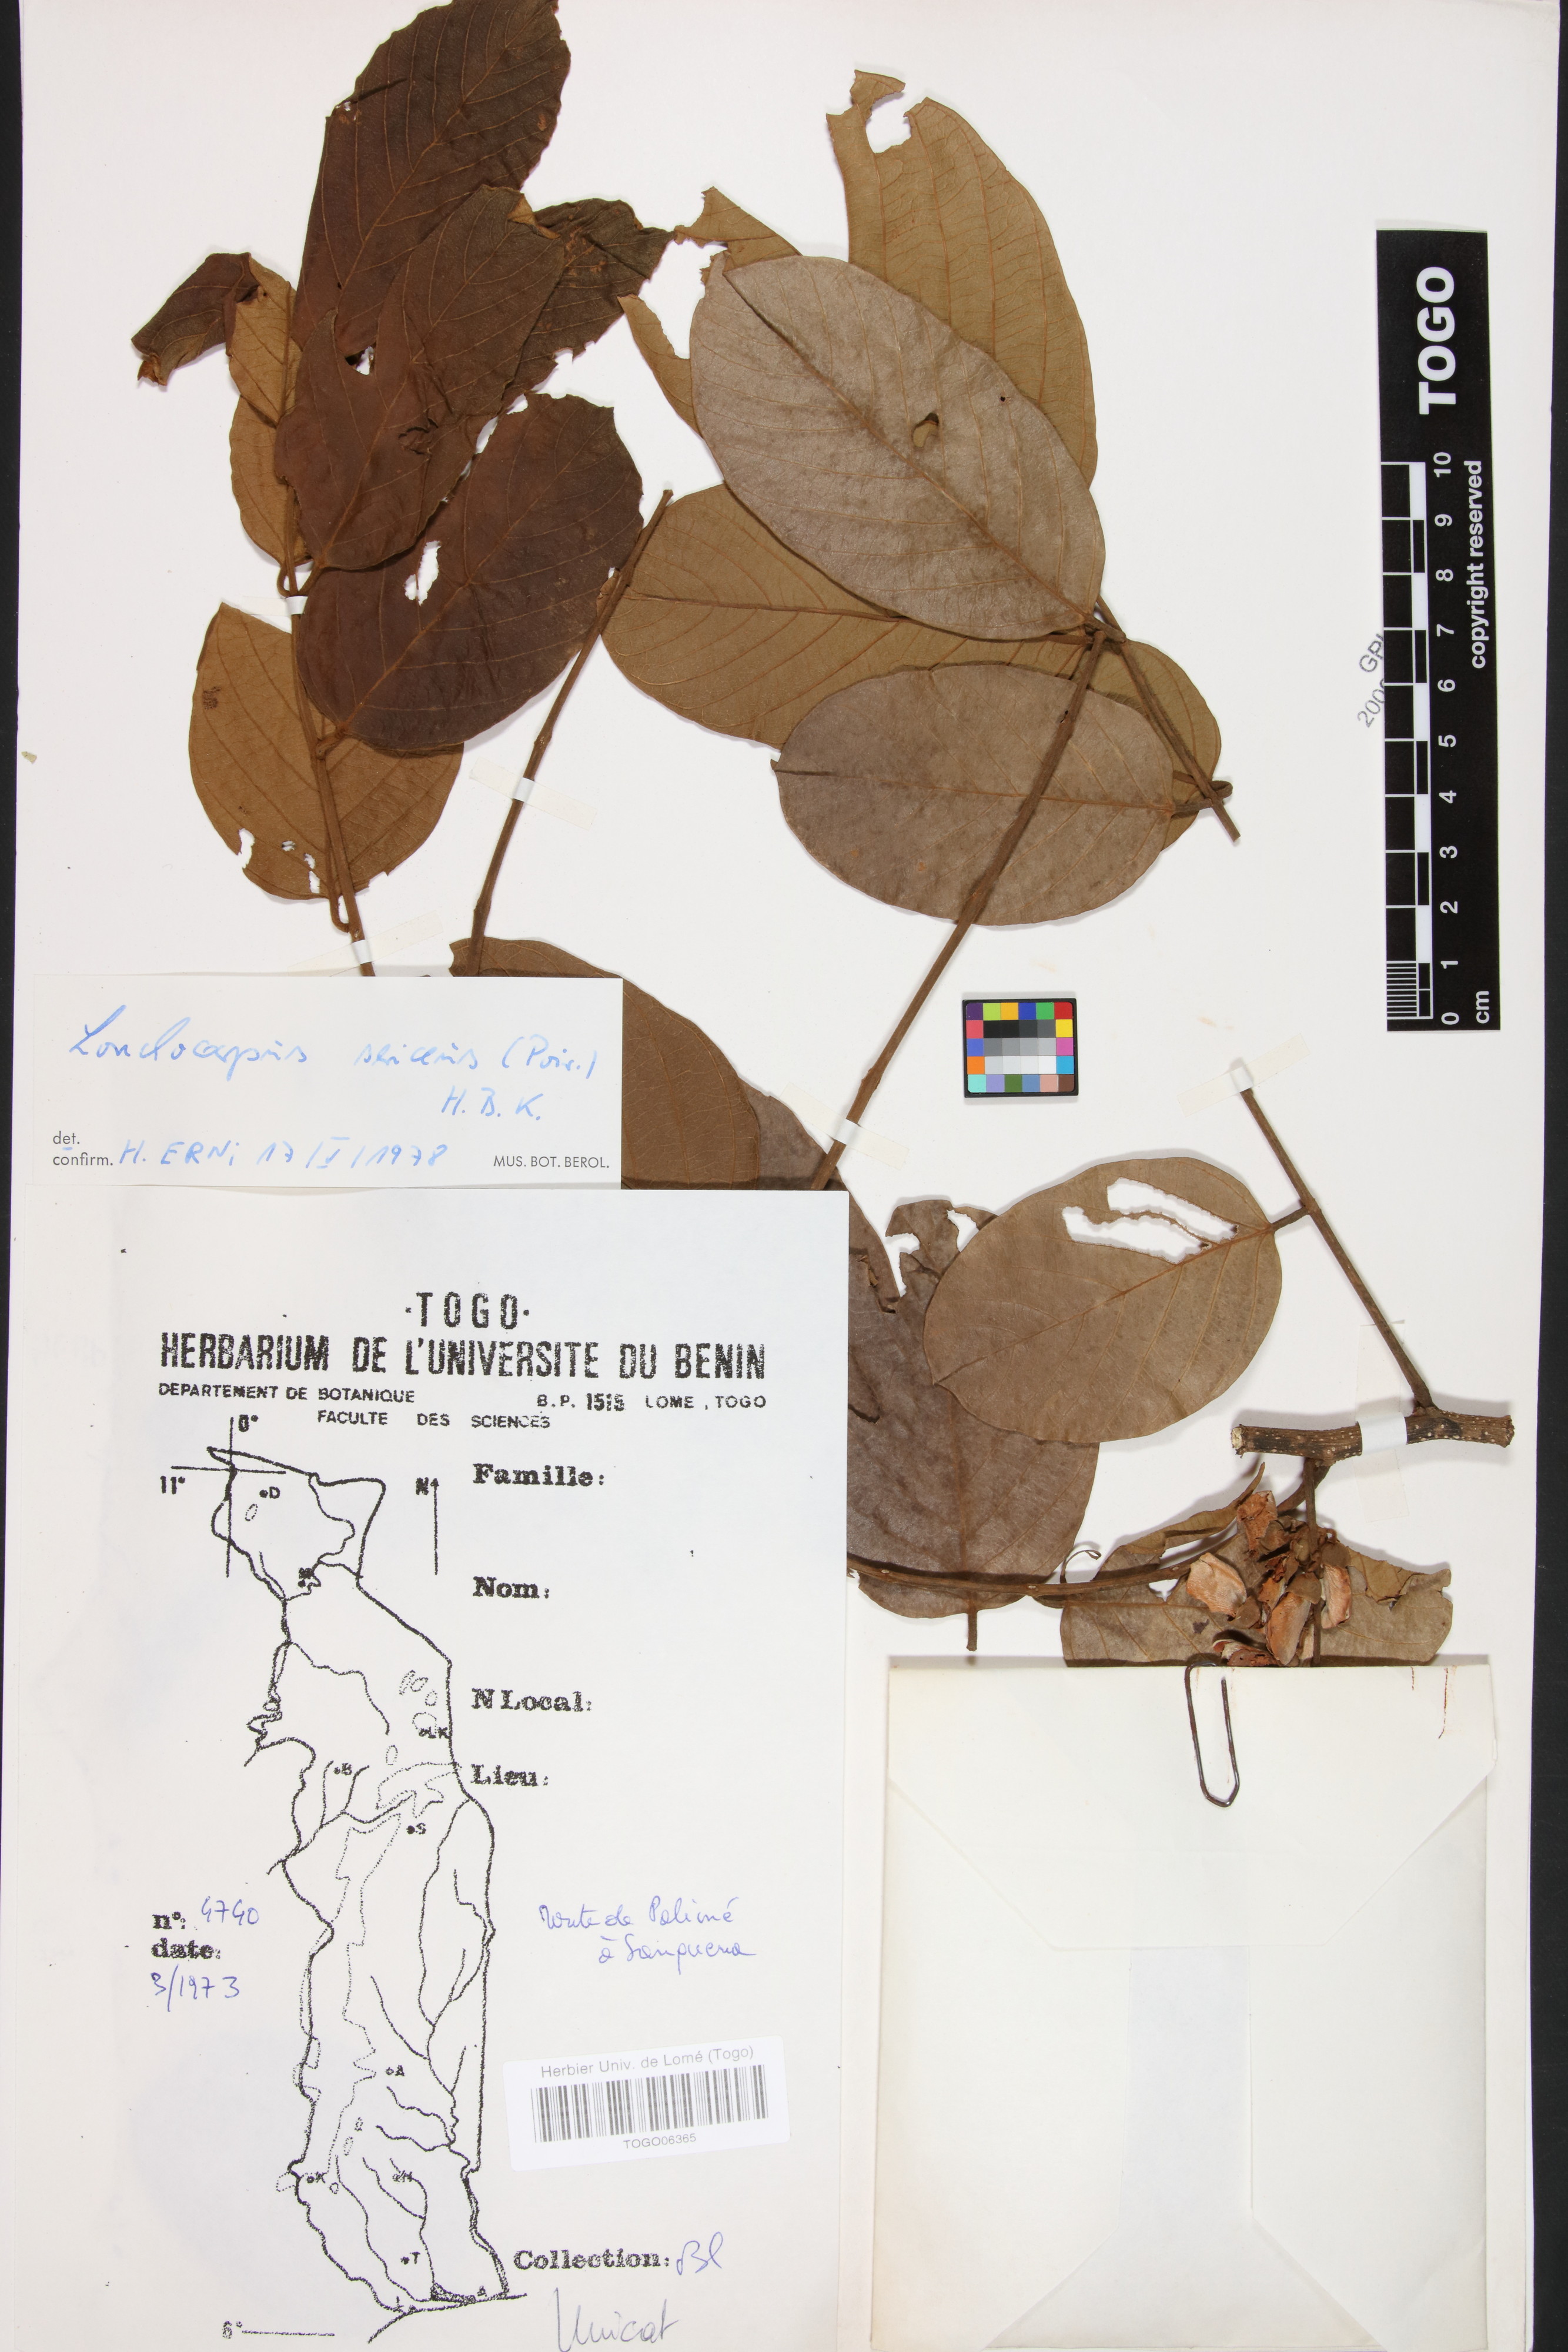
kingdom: Plantae
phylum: Tracheophyta
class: Magnoliopsida
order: Fabales
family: Fabaceae
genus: Lonchocarpus
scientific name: Lonchocarpus sericeus
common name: Savonette
